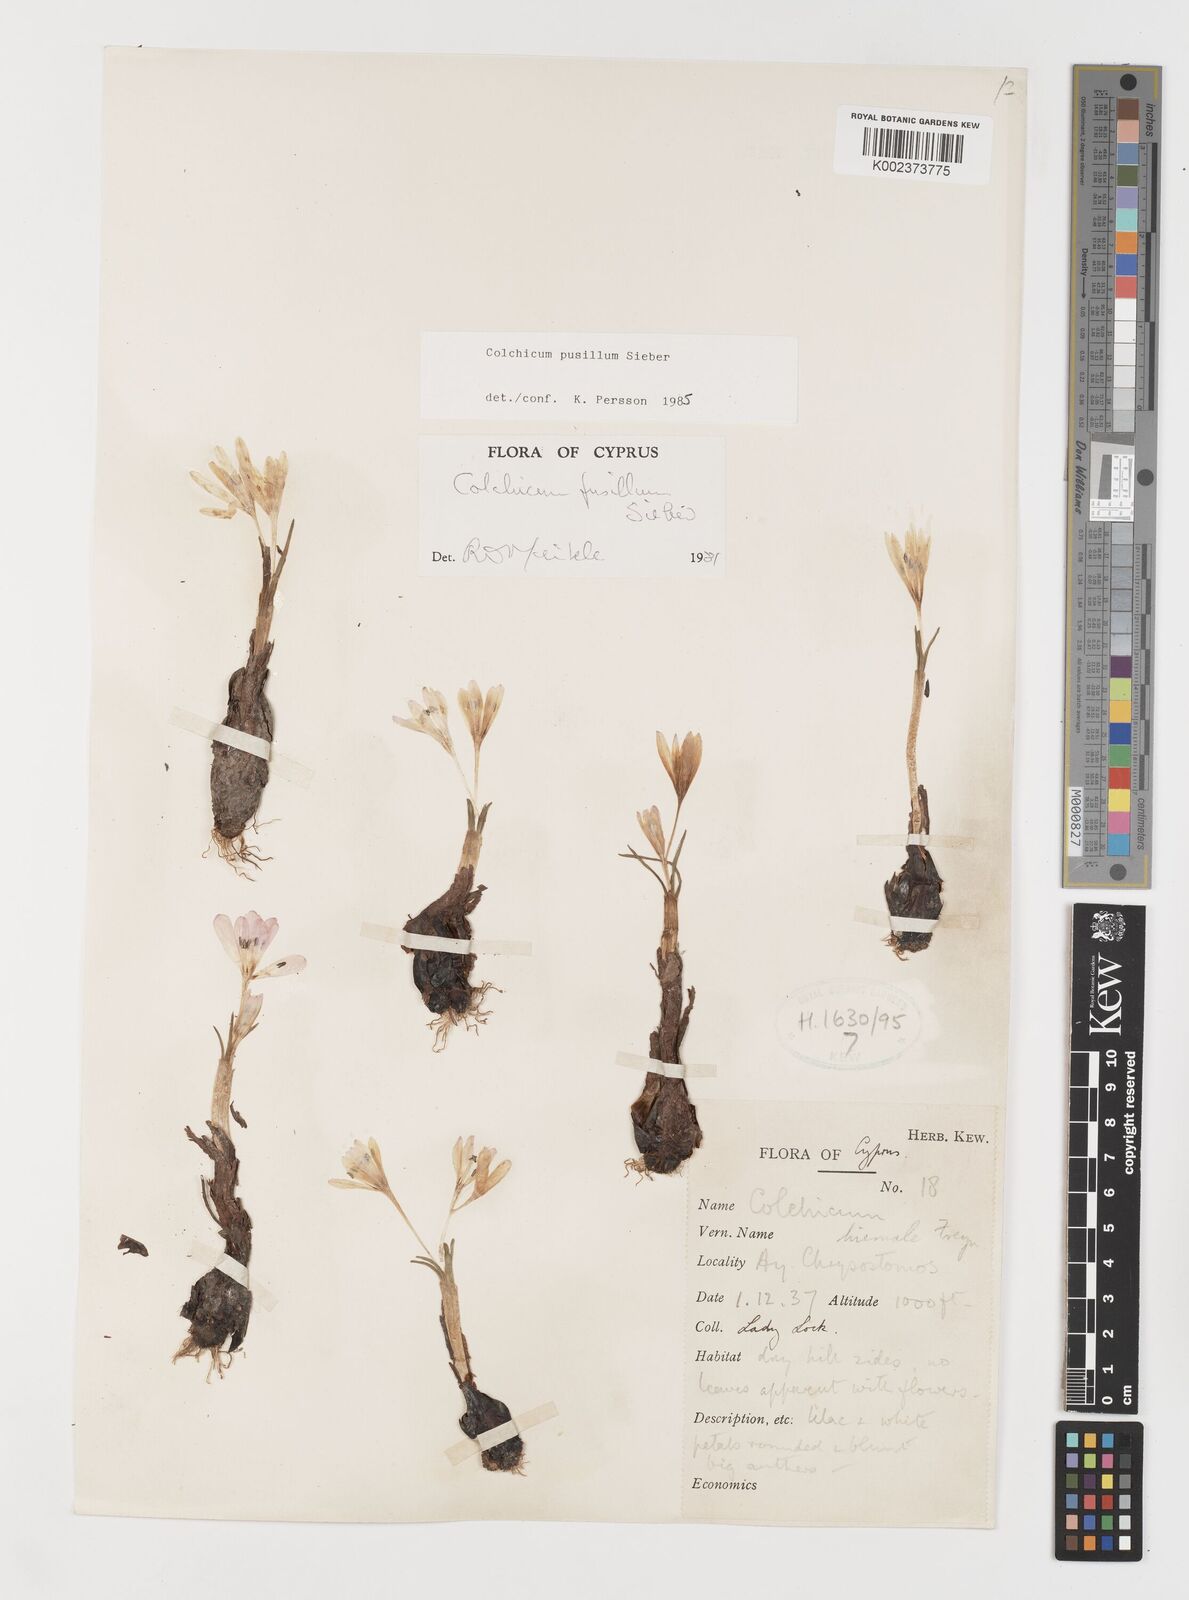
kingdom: Plantae
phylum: Tracheophyta
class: Liliopsida
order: Liliales
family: Colchicaceae
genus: Colchicum
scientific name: Colchicum pusillum
